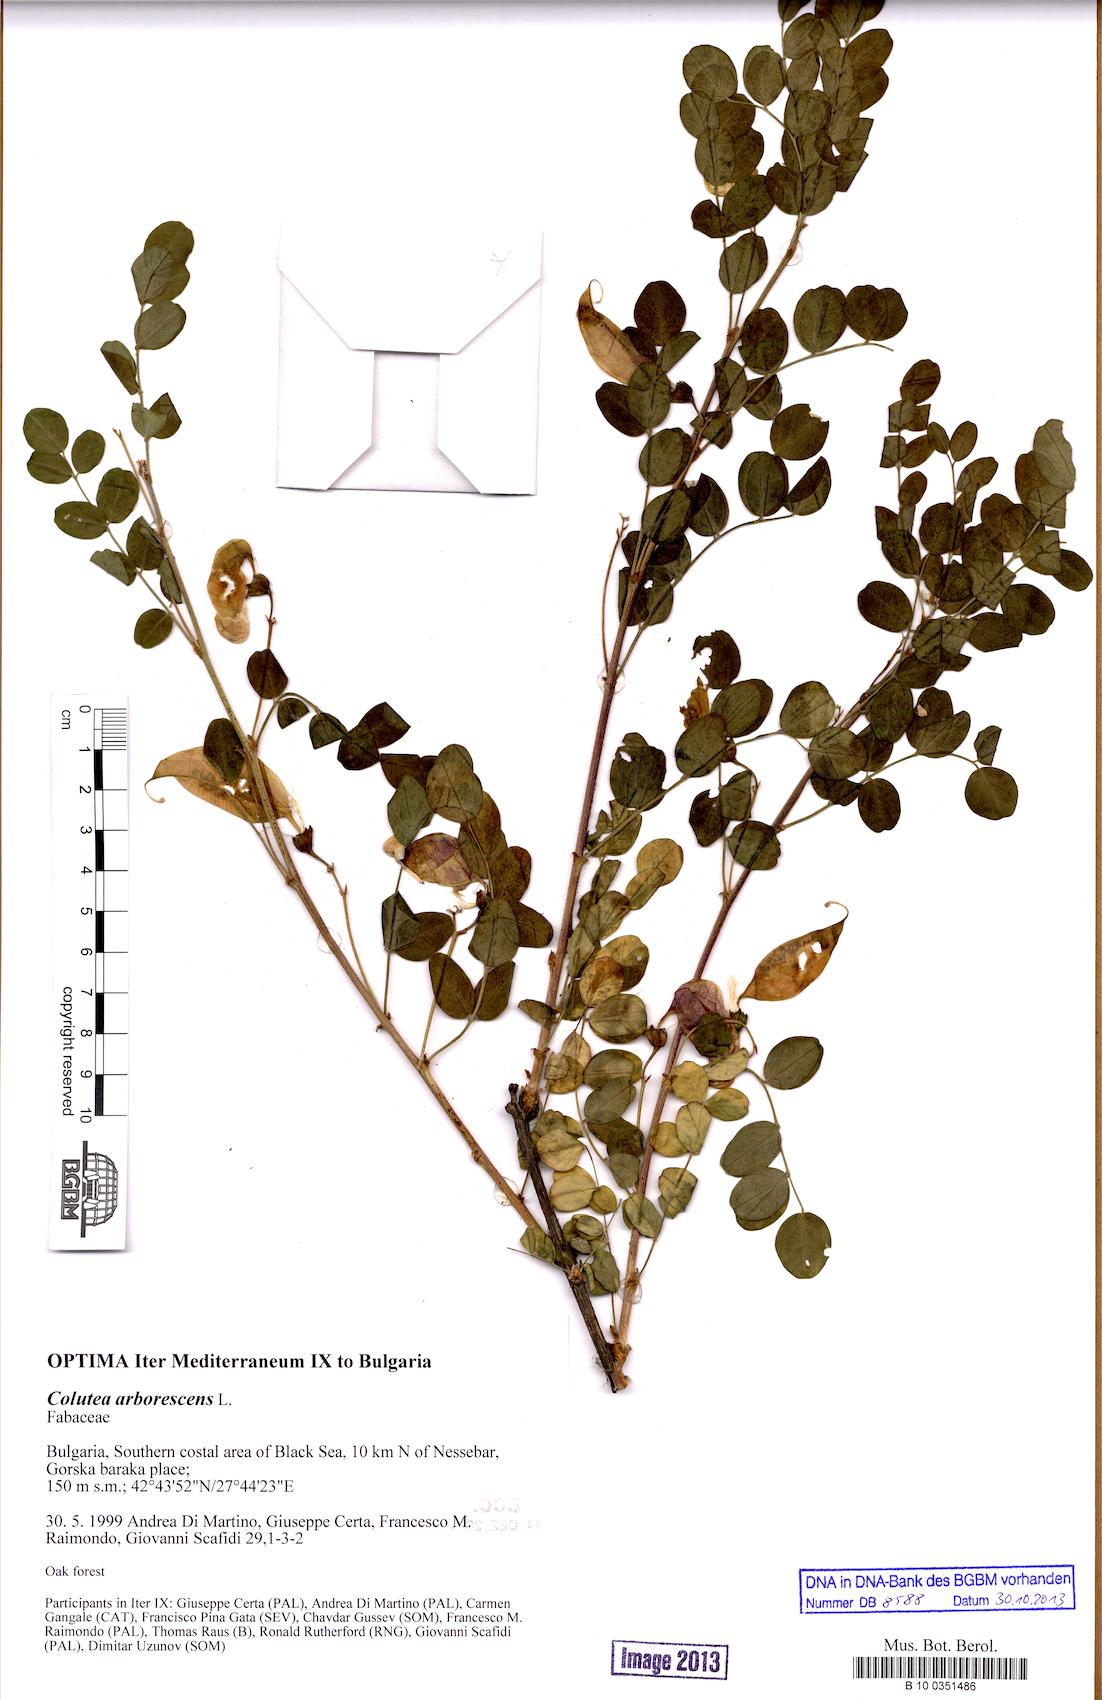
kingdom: Plantae
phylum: Tracheophyta
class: Magnoliopsida
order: Fabales
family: Fabaceae
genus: Colutea
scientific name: Colutea arborescens
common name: Bladder-senna
